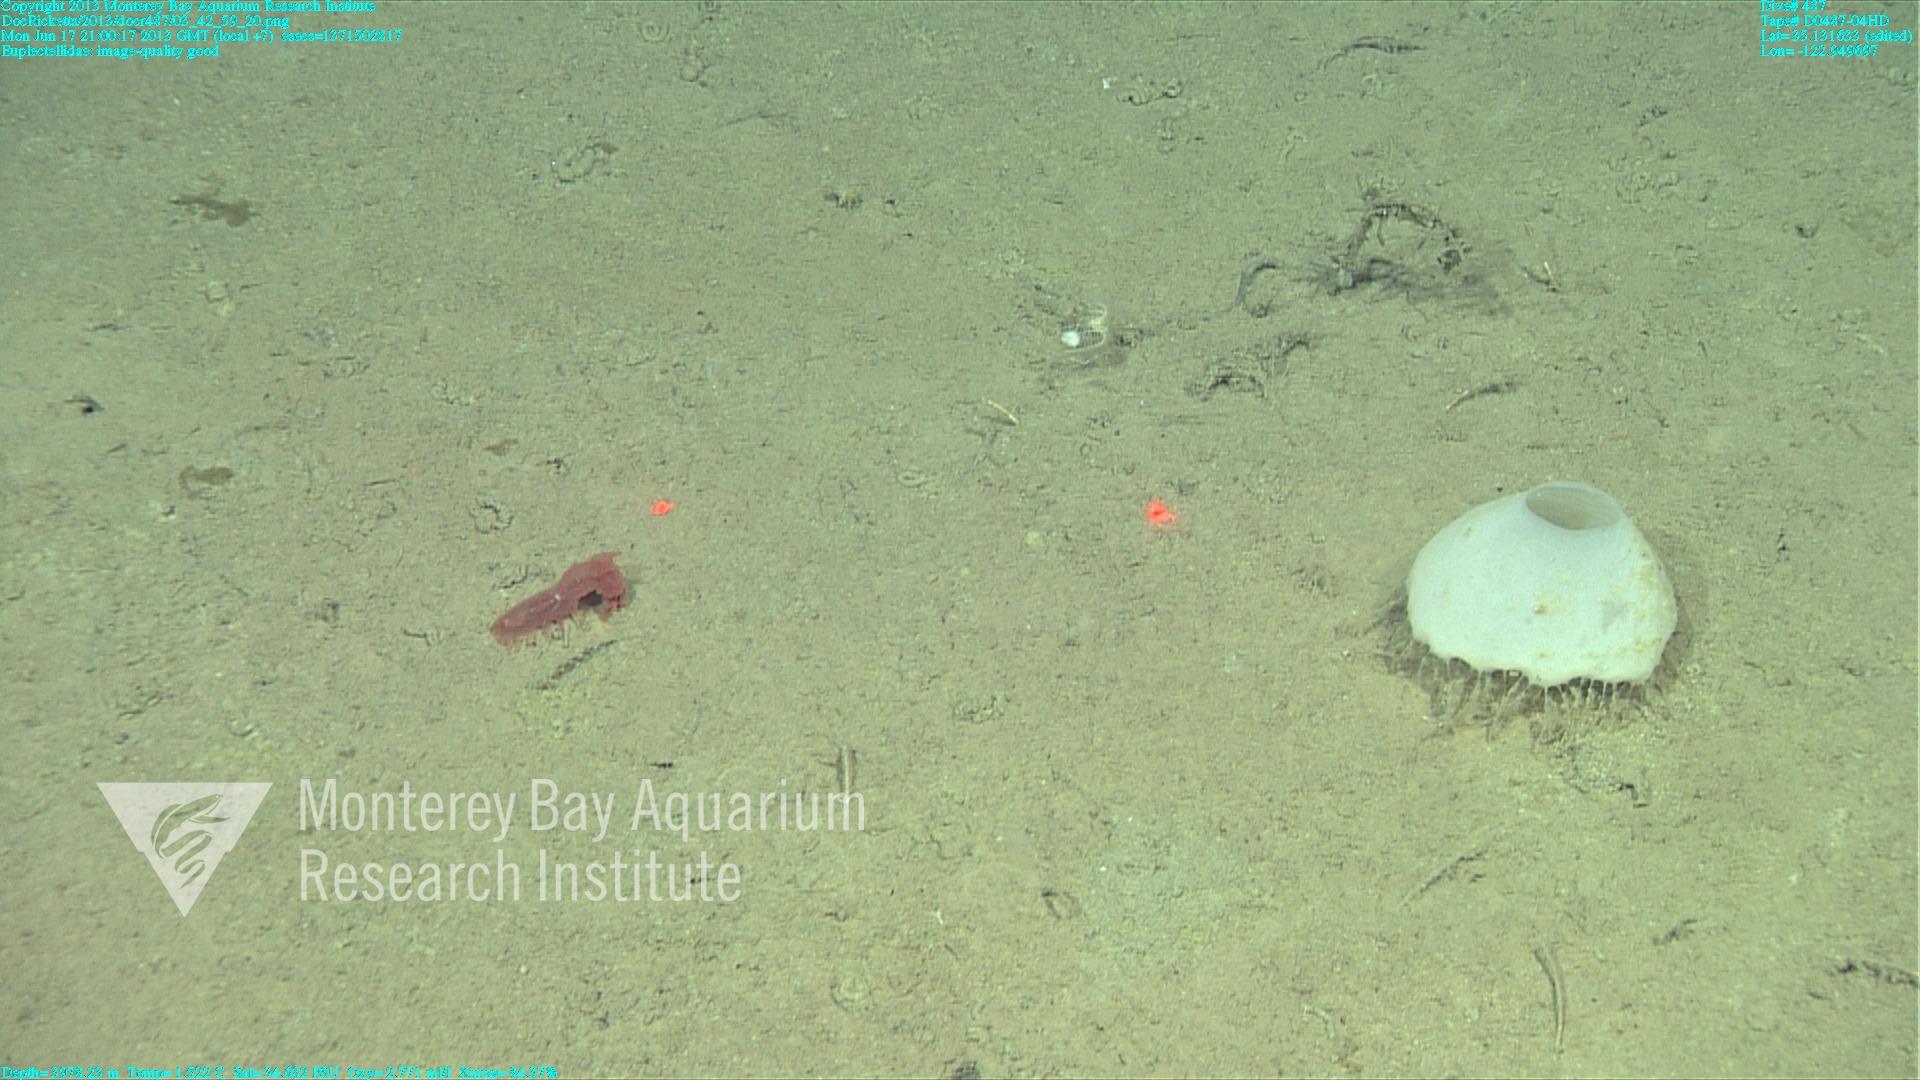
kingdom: Animalia
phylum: Porifera
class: Hexactinellida
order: Lyssacinosida
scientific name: Lyssacinosida
